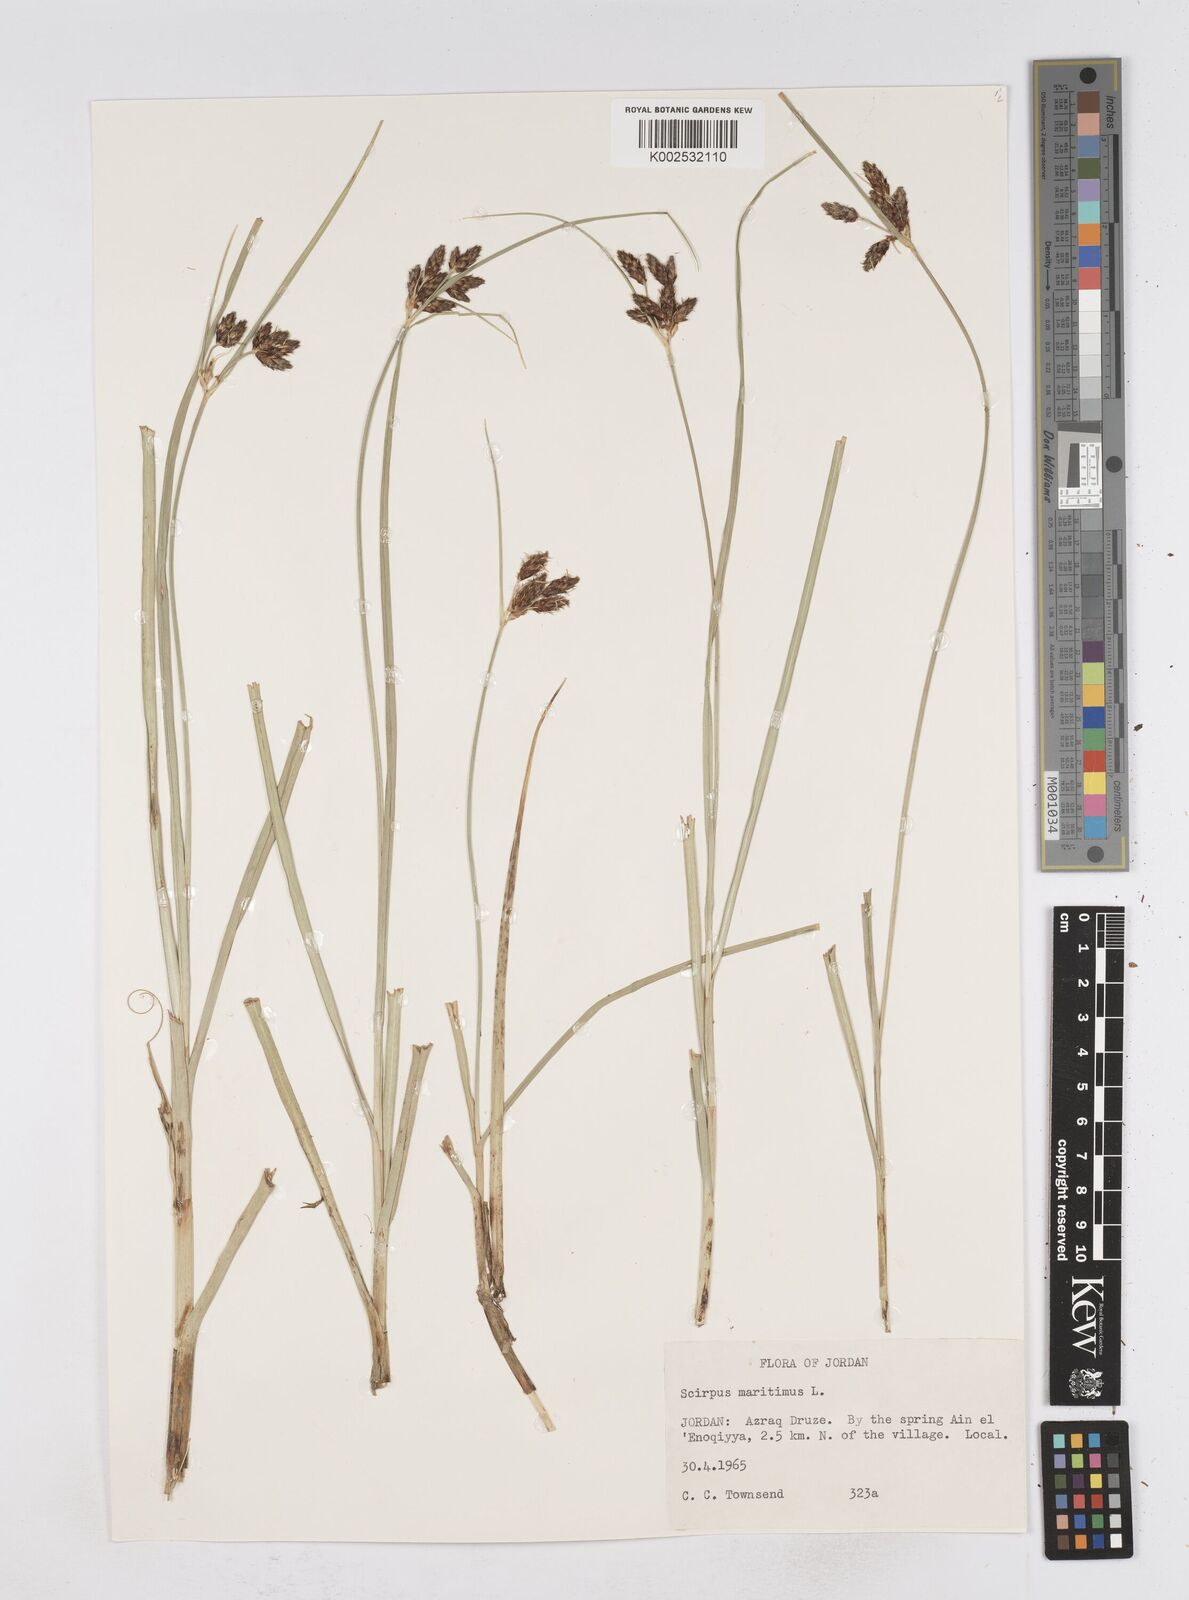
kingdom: Plantae
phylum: Tracheophyta
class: Liliopsida
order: Poales
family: Cyperaceae
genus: Bolboschoenus
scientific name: Bolboschoenus maritimus
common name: Sea club-rush
